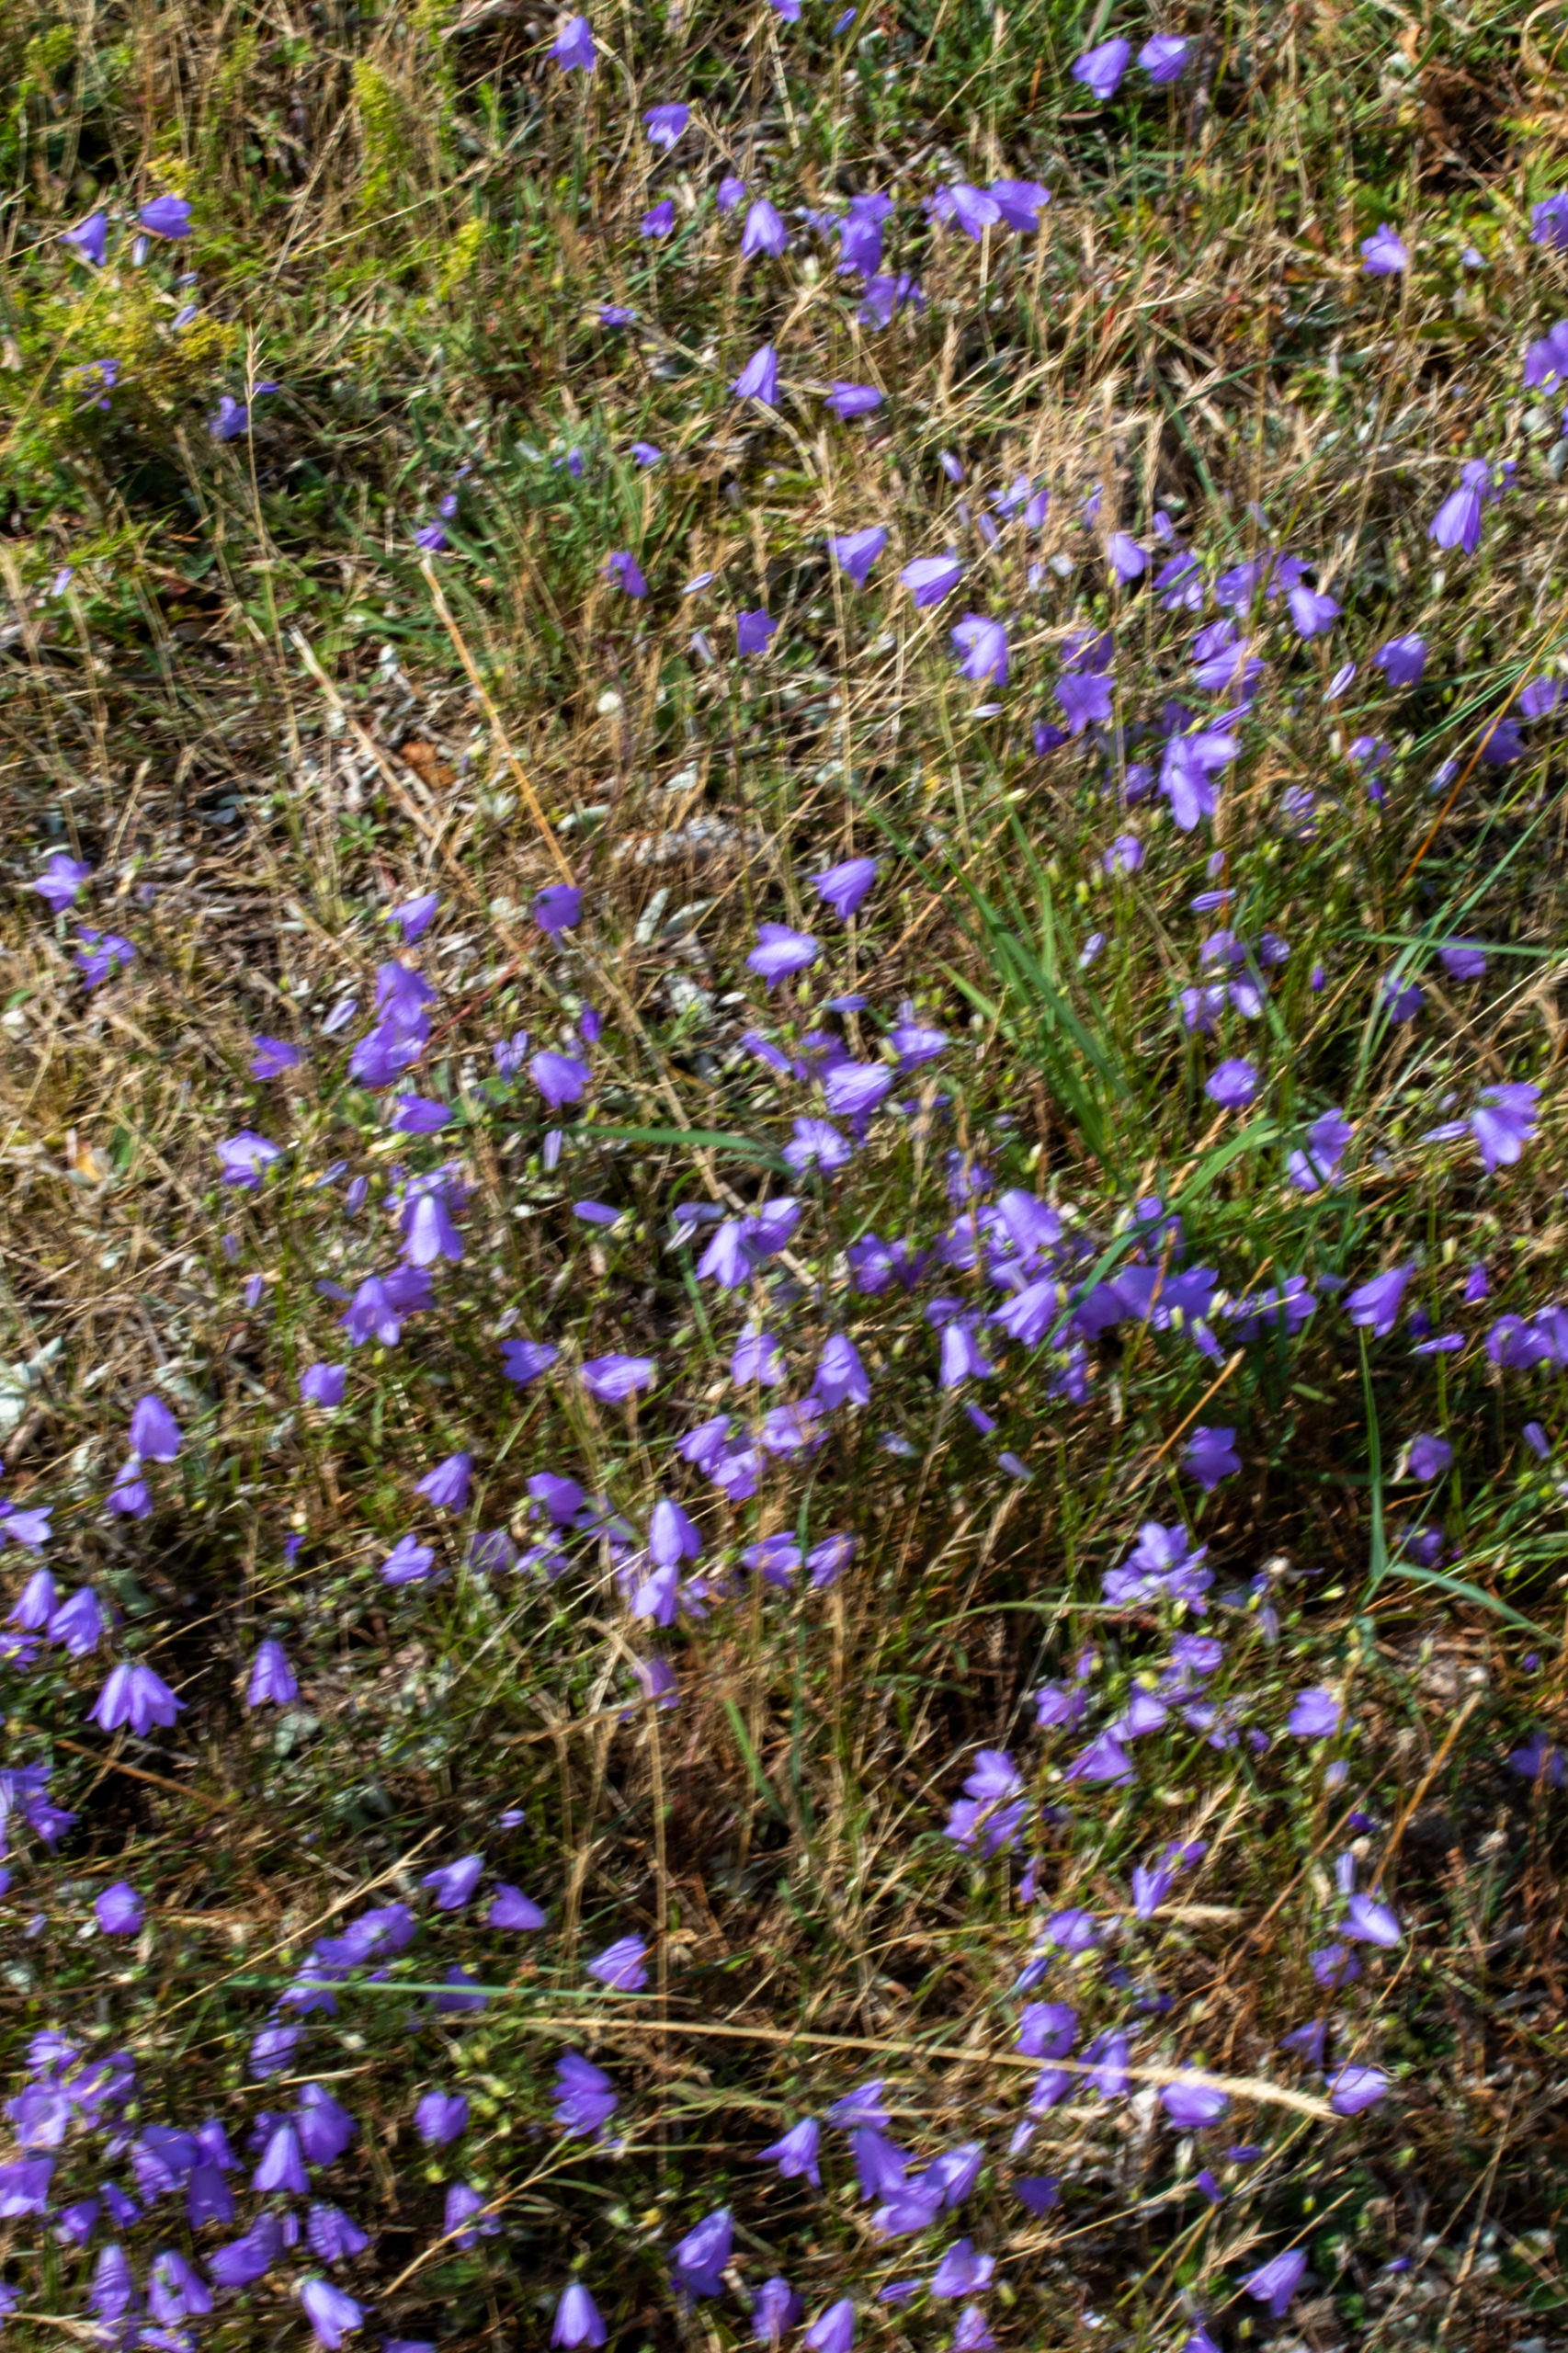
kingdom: Plantae
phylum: Tracheophyta
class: Magnoliopsida
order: Asterales
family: Campanulaceae
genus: Campanula
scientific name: Campanula rotundifolia
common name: Liden klokke
